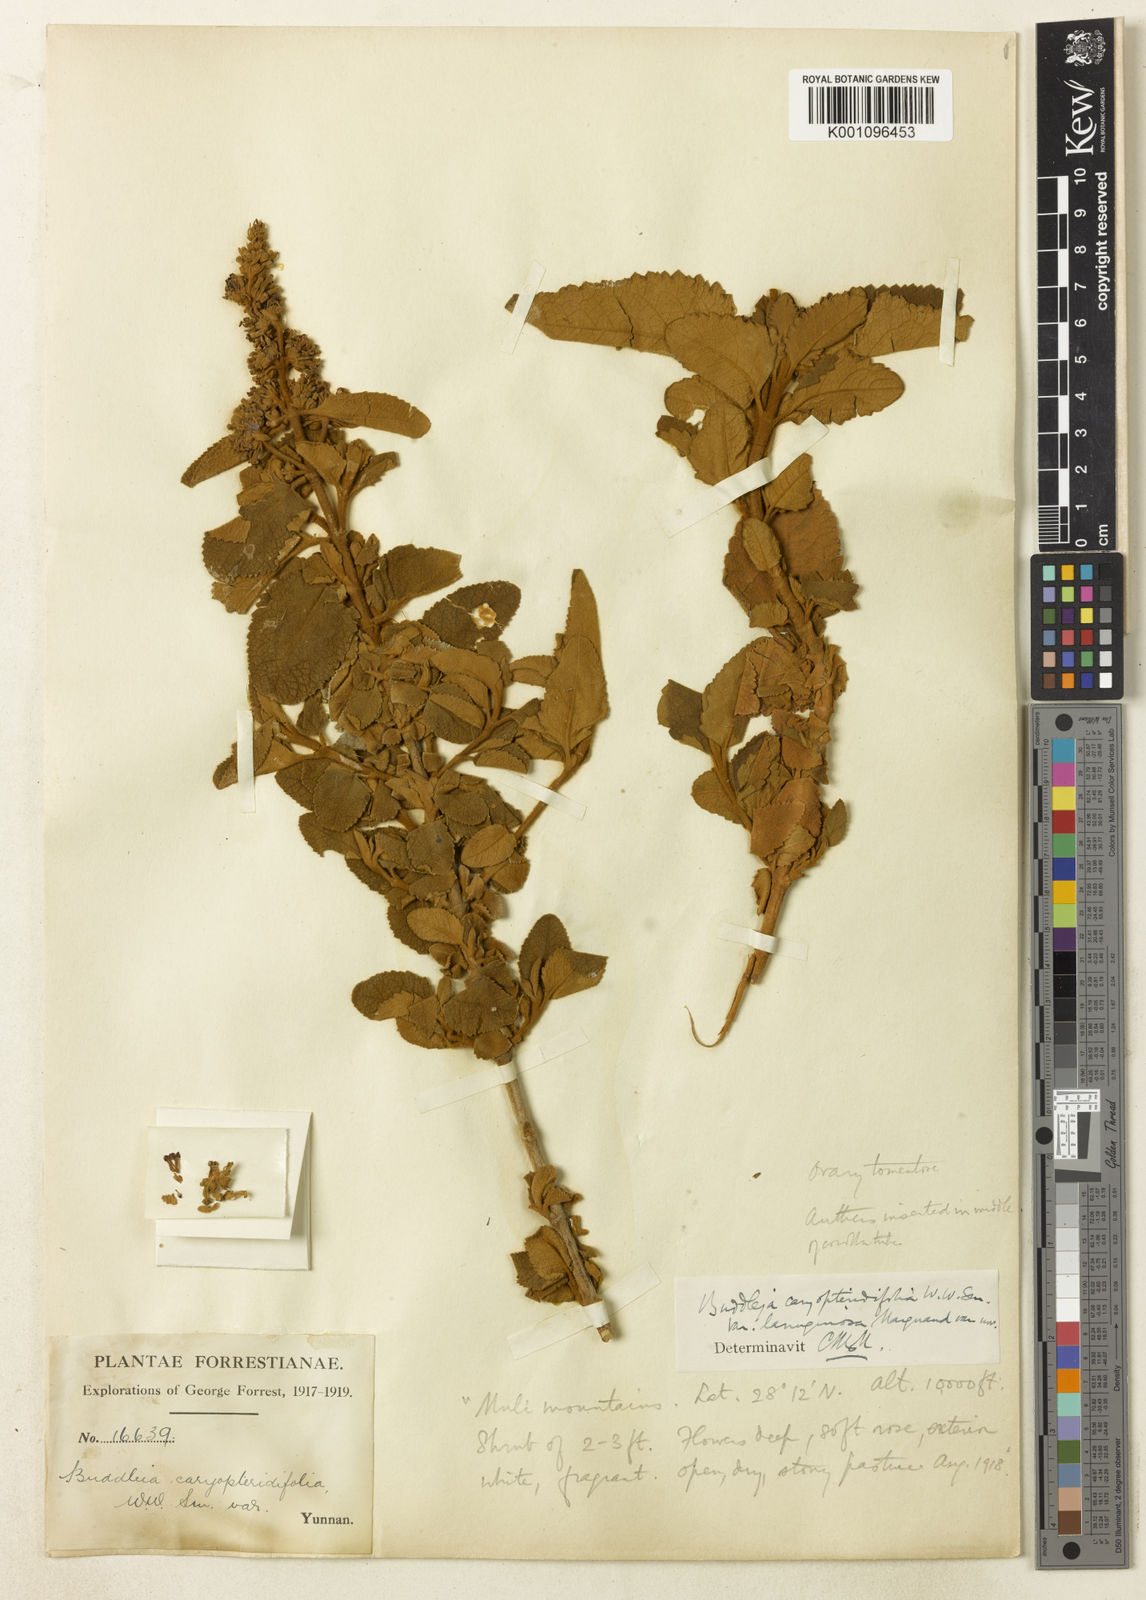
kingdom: Plantae
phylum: Tracheophyta
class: Magnoliopsida
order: Lamiales
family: Scrophulariaceae
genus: Buddleja
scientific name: Buddleja crispa
